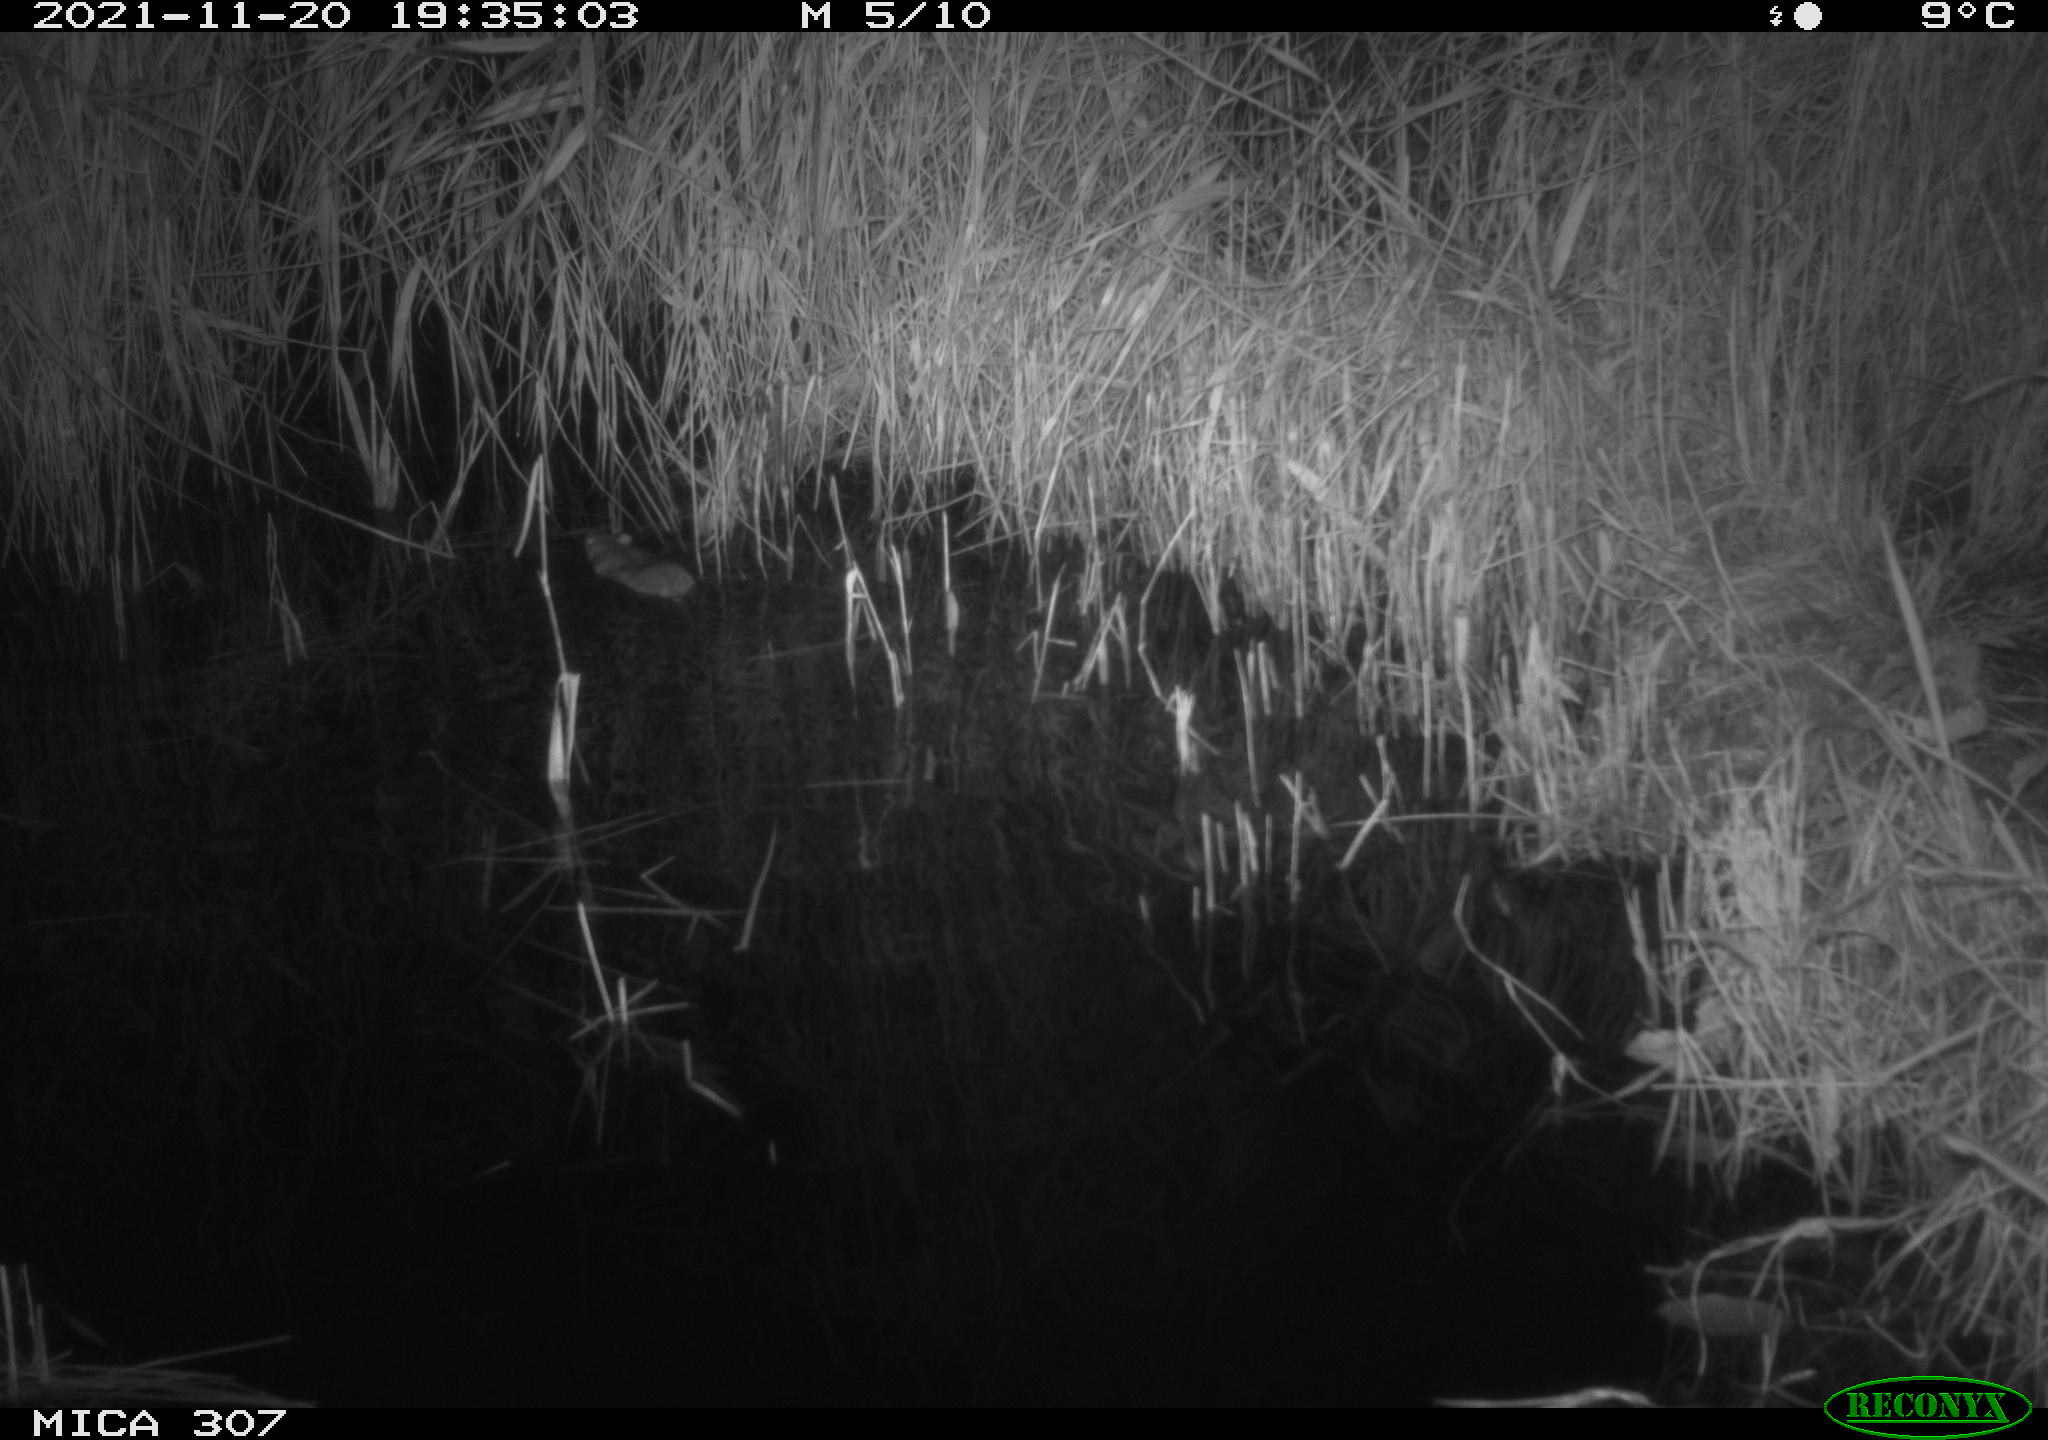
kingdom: Animalia
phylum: Chordata
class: Mammalia
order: Rodentia
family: Muridae
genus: Rattus
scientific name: Rattus norvegicus
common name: Brown rat
